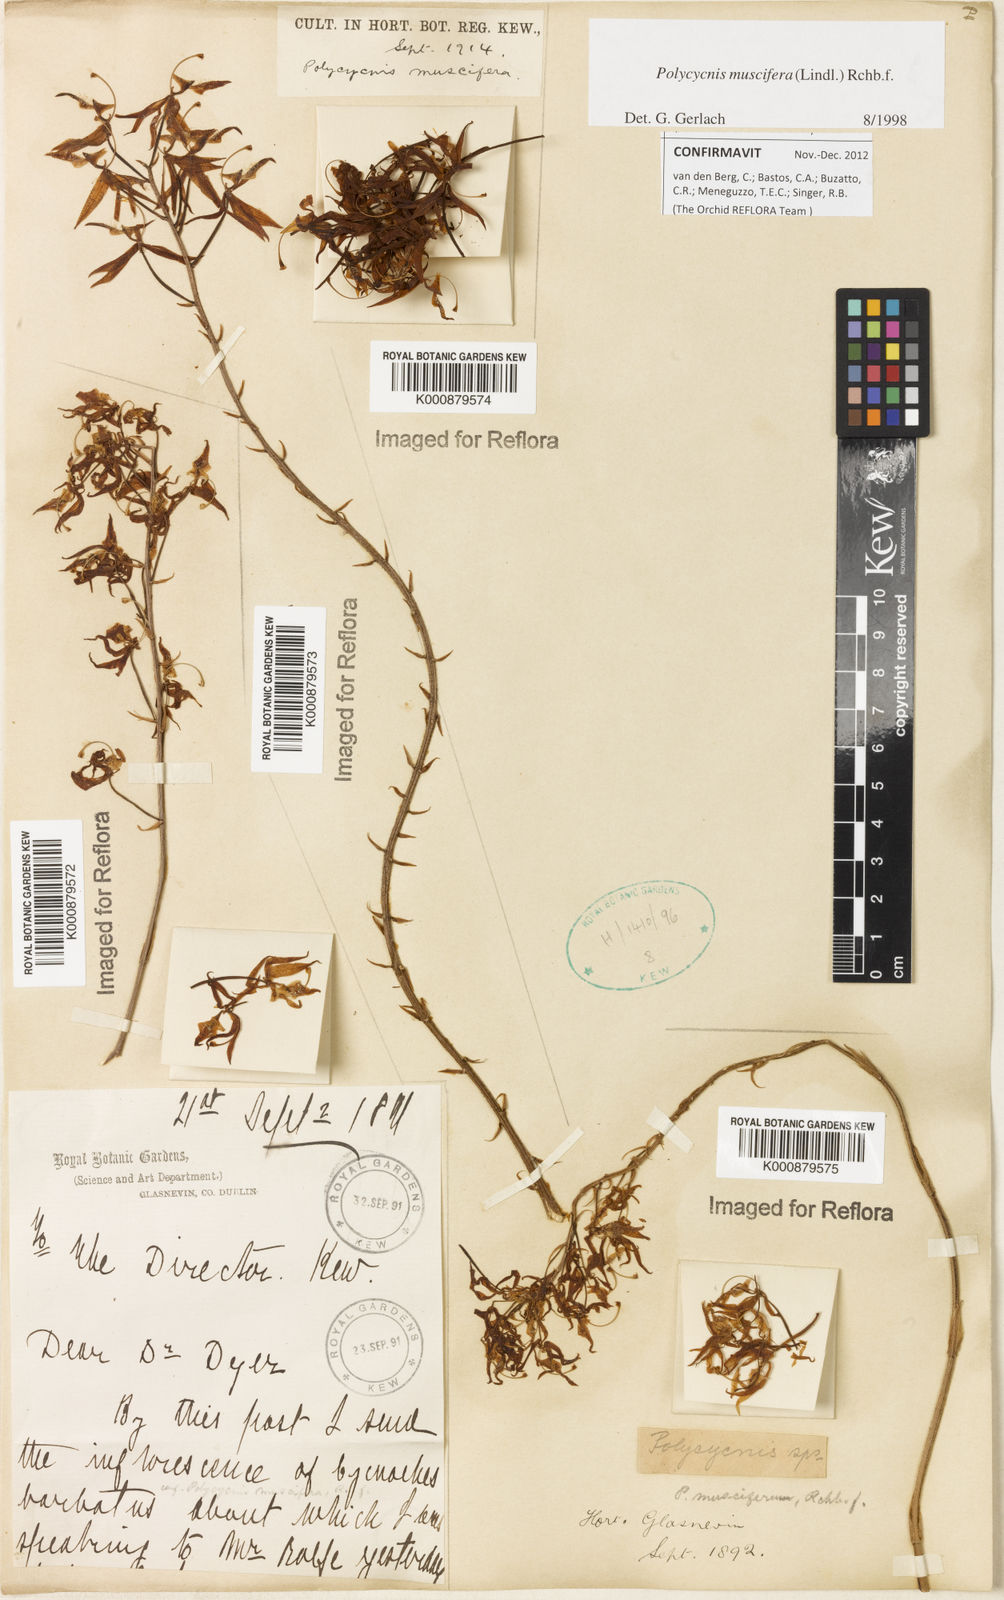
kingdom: Plantae
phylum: Tracheophyta
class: Liliopsida
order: Asparagales
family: Orchidaceae
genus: Polycycnis
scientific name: Polycycnis muscifera
